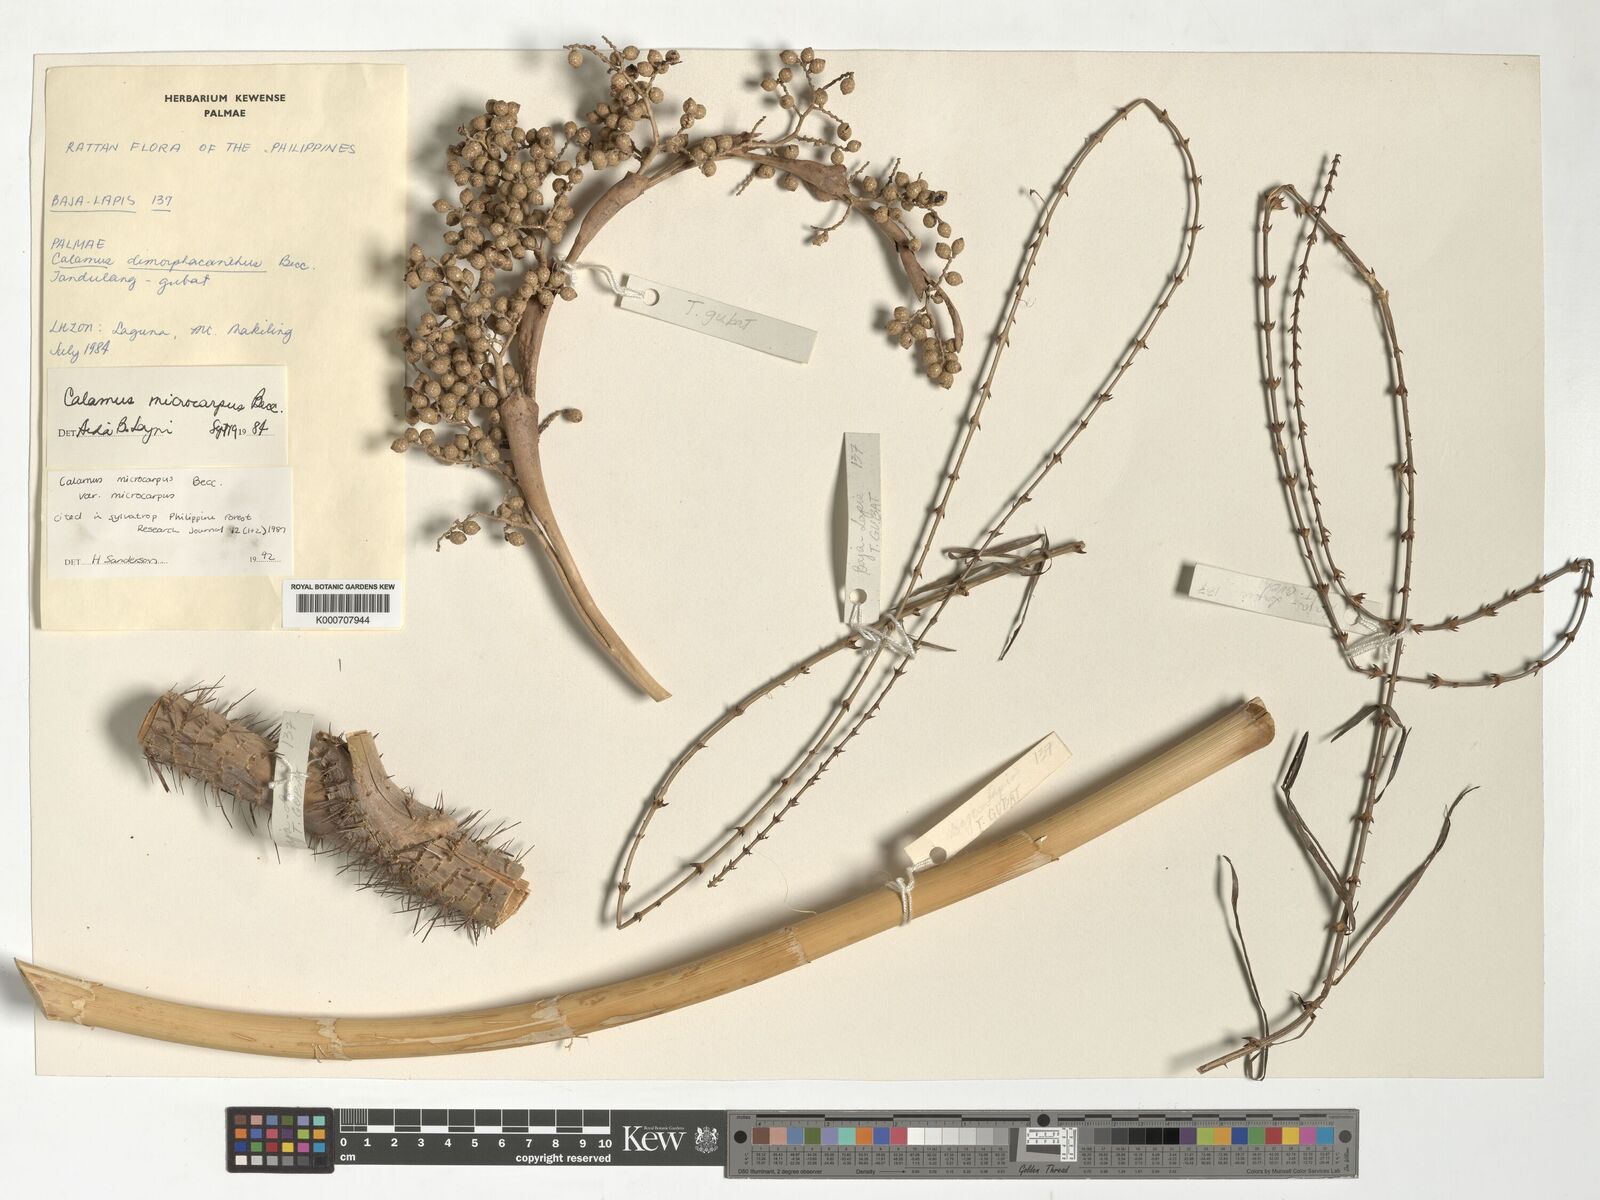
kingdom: Plantae
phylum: Tracheophyta
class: Liliopsida
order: Arecales
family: Arecaceae
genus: Calamus
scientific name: Calamus siphonospathus
